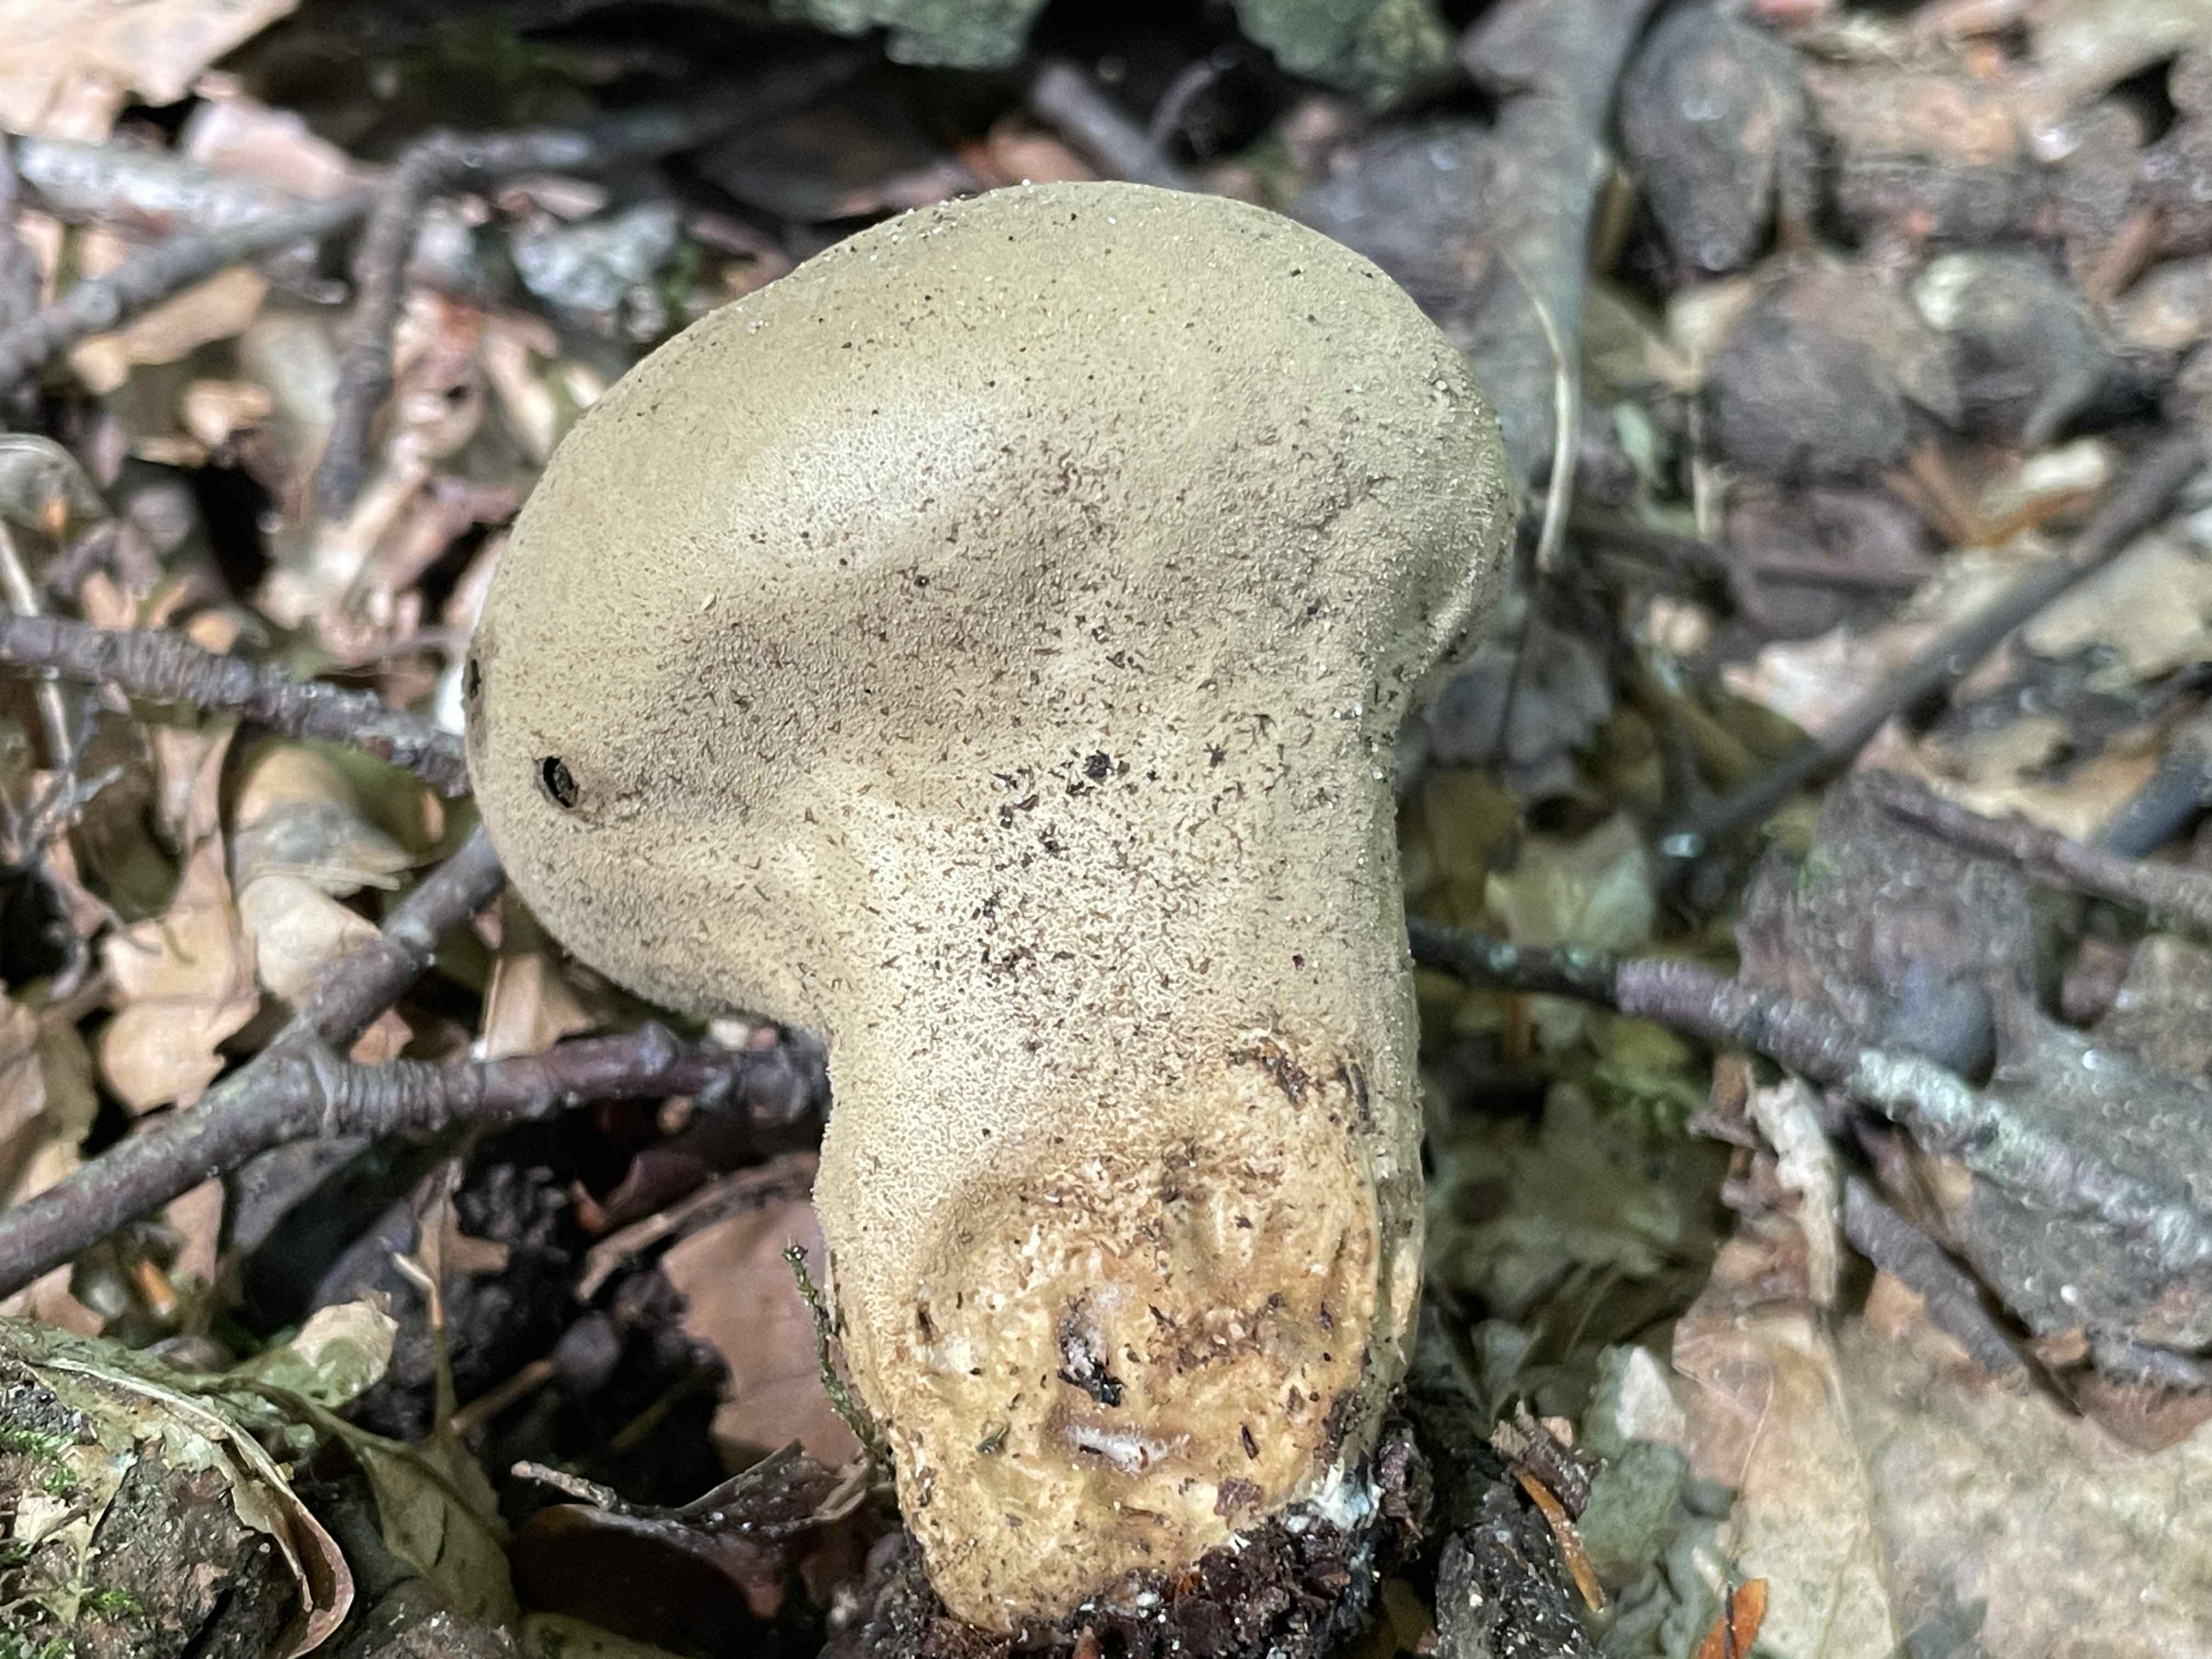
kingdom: Fungi
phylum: Basidiomycota
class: Agaricomycetes
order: Agaricales
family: Lycoperdaceae
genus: Lycoperdon
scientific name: Lycoperdon excipuliforme
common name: højstokket støvbold
